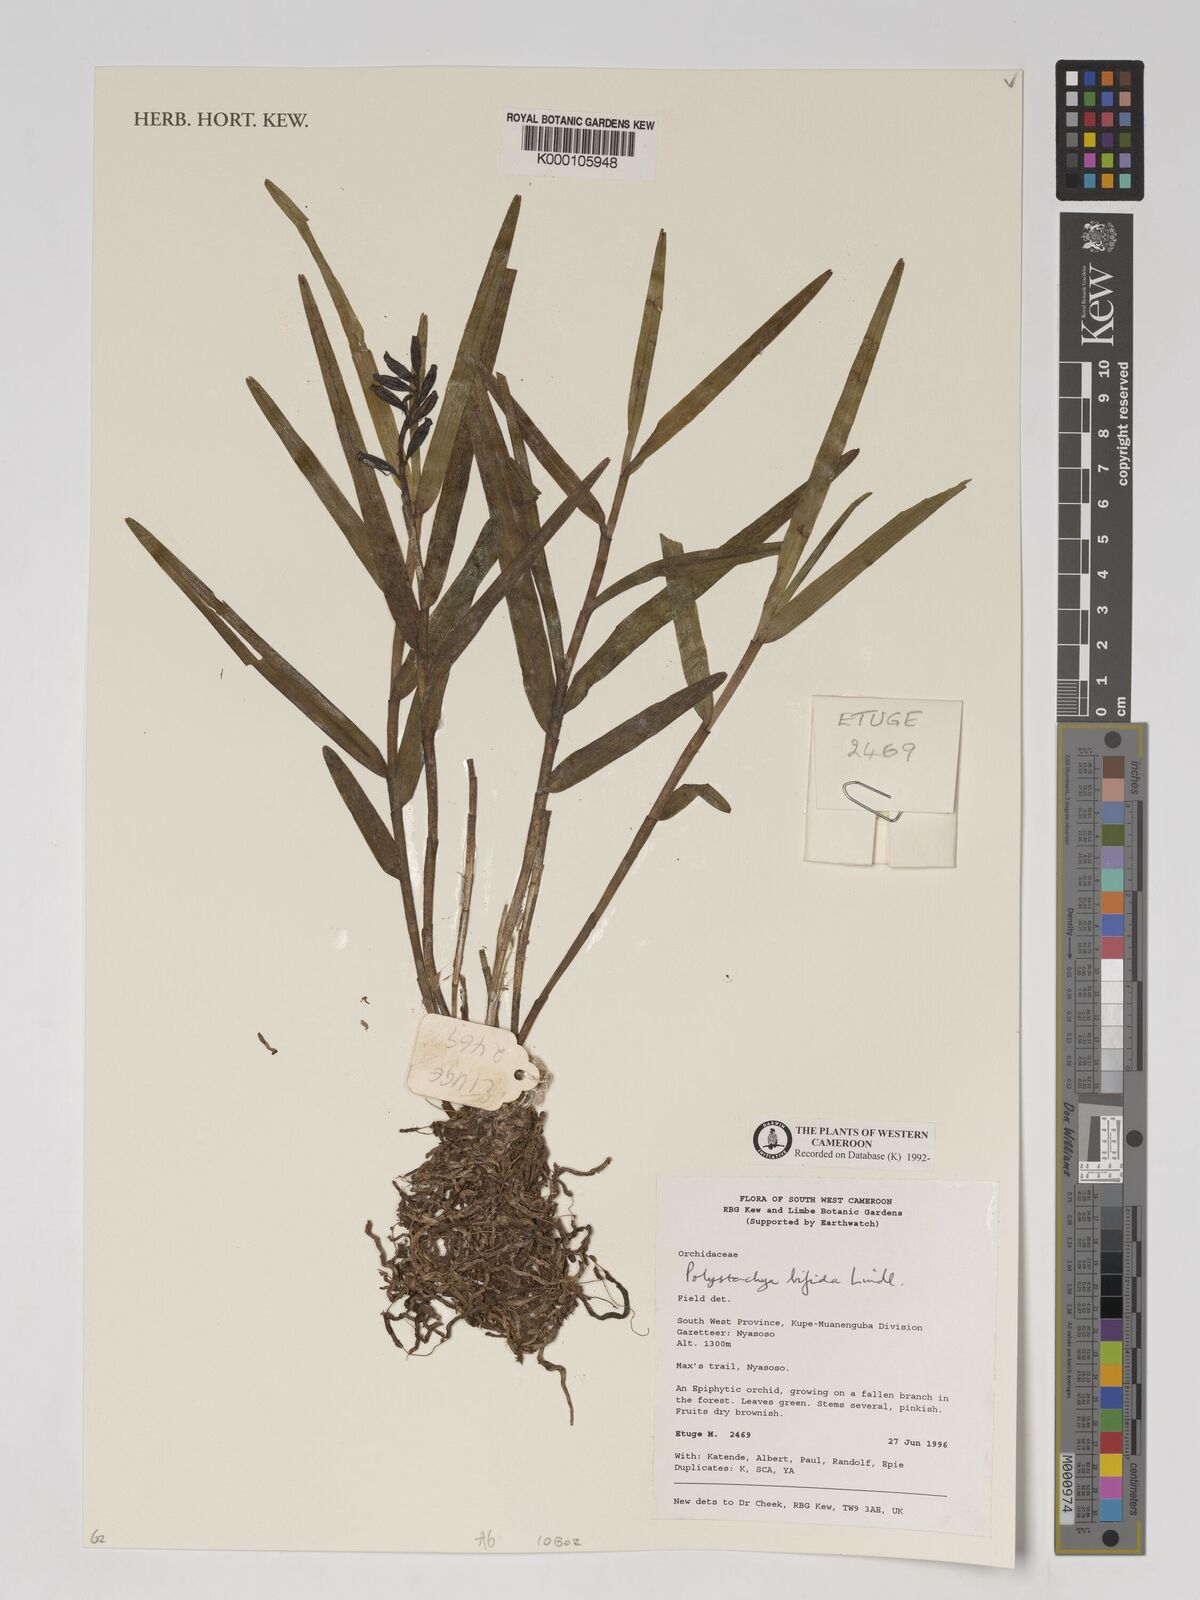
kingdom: Plantae
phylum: Tracheophyta
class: Liliopsida
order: Asparagales
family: Orchidaceae
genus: Polystachya
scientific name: Polystachya bifida
